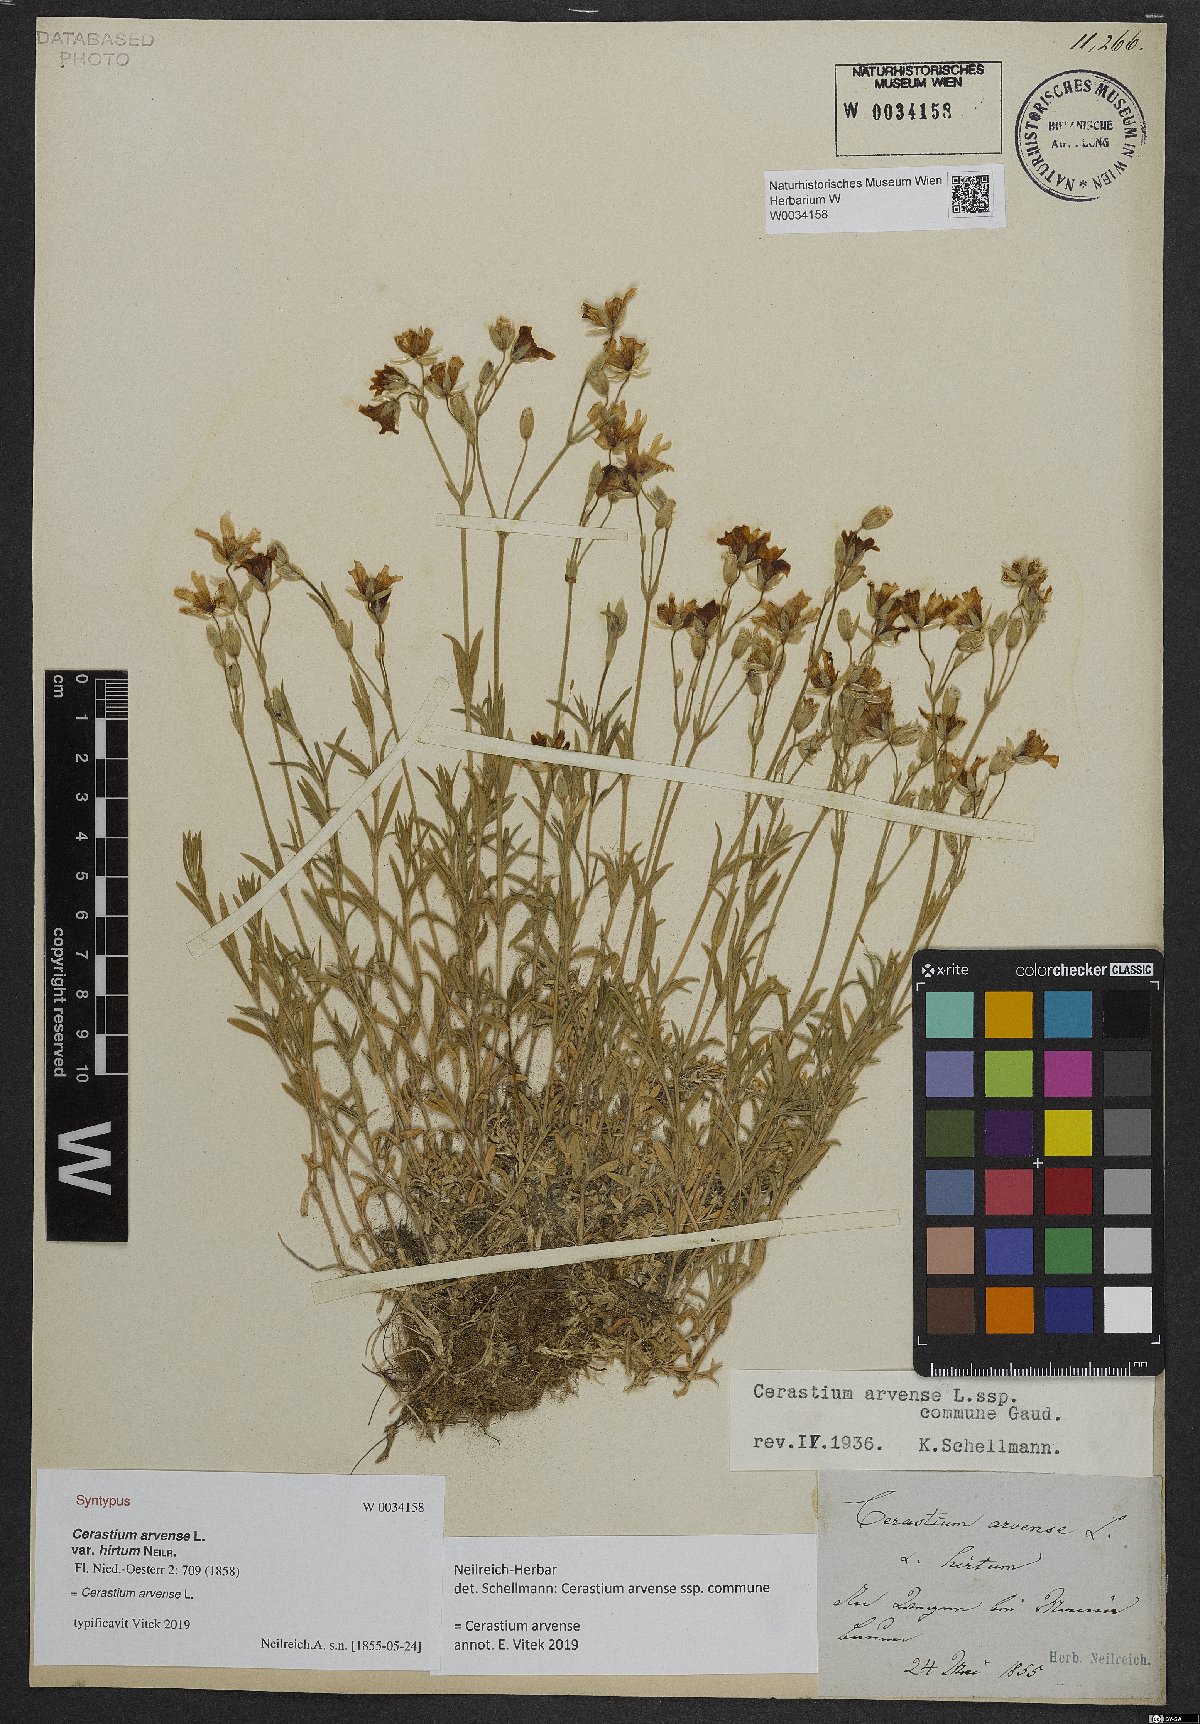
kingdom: Plantae
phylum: Tracheophyta
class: Magnoliopsida
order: Caryophyllales
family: Caryophyllaceae
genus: Cerastium
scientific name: Cerastium arvense
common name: Field mouse-ear
